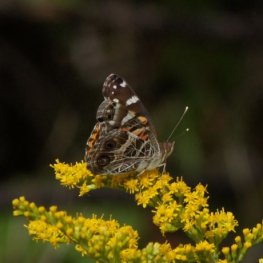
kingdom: Animalia
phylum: Arthropoda
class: Insecta
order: Lepidoptera
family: Nymphalidae
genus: Vanessa
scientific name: Vanessa virginiensis
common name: American Lady
